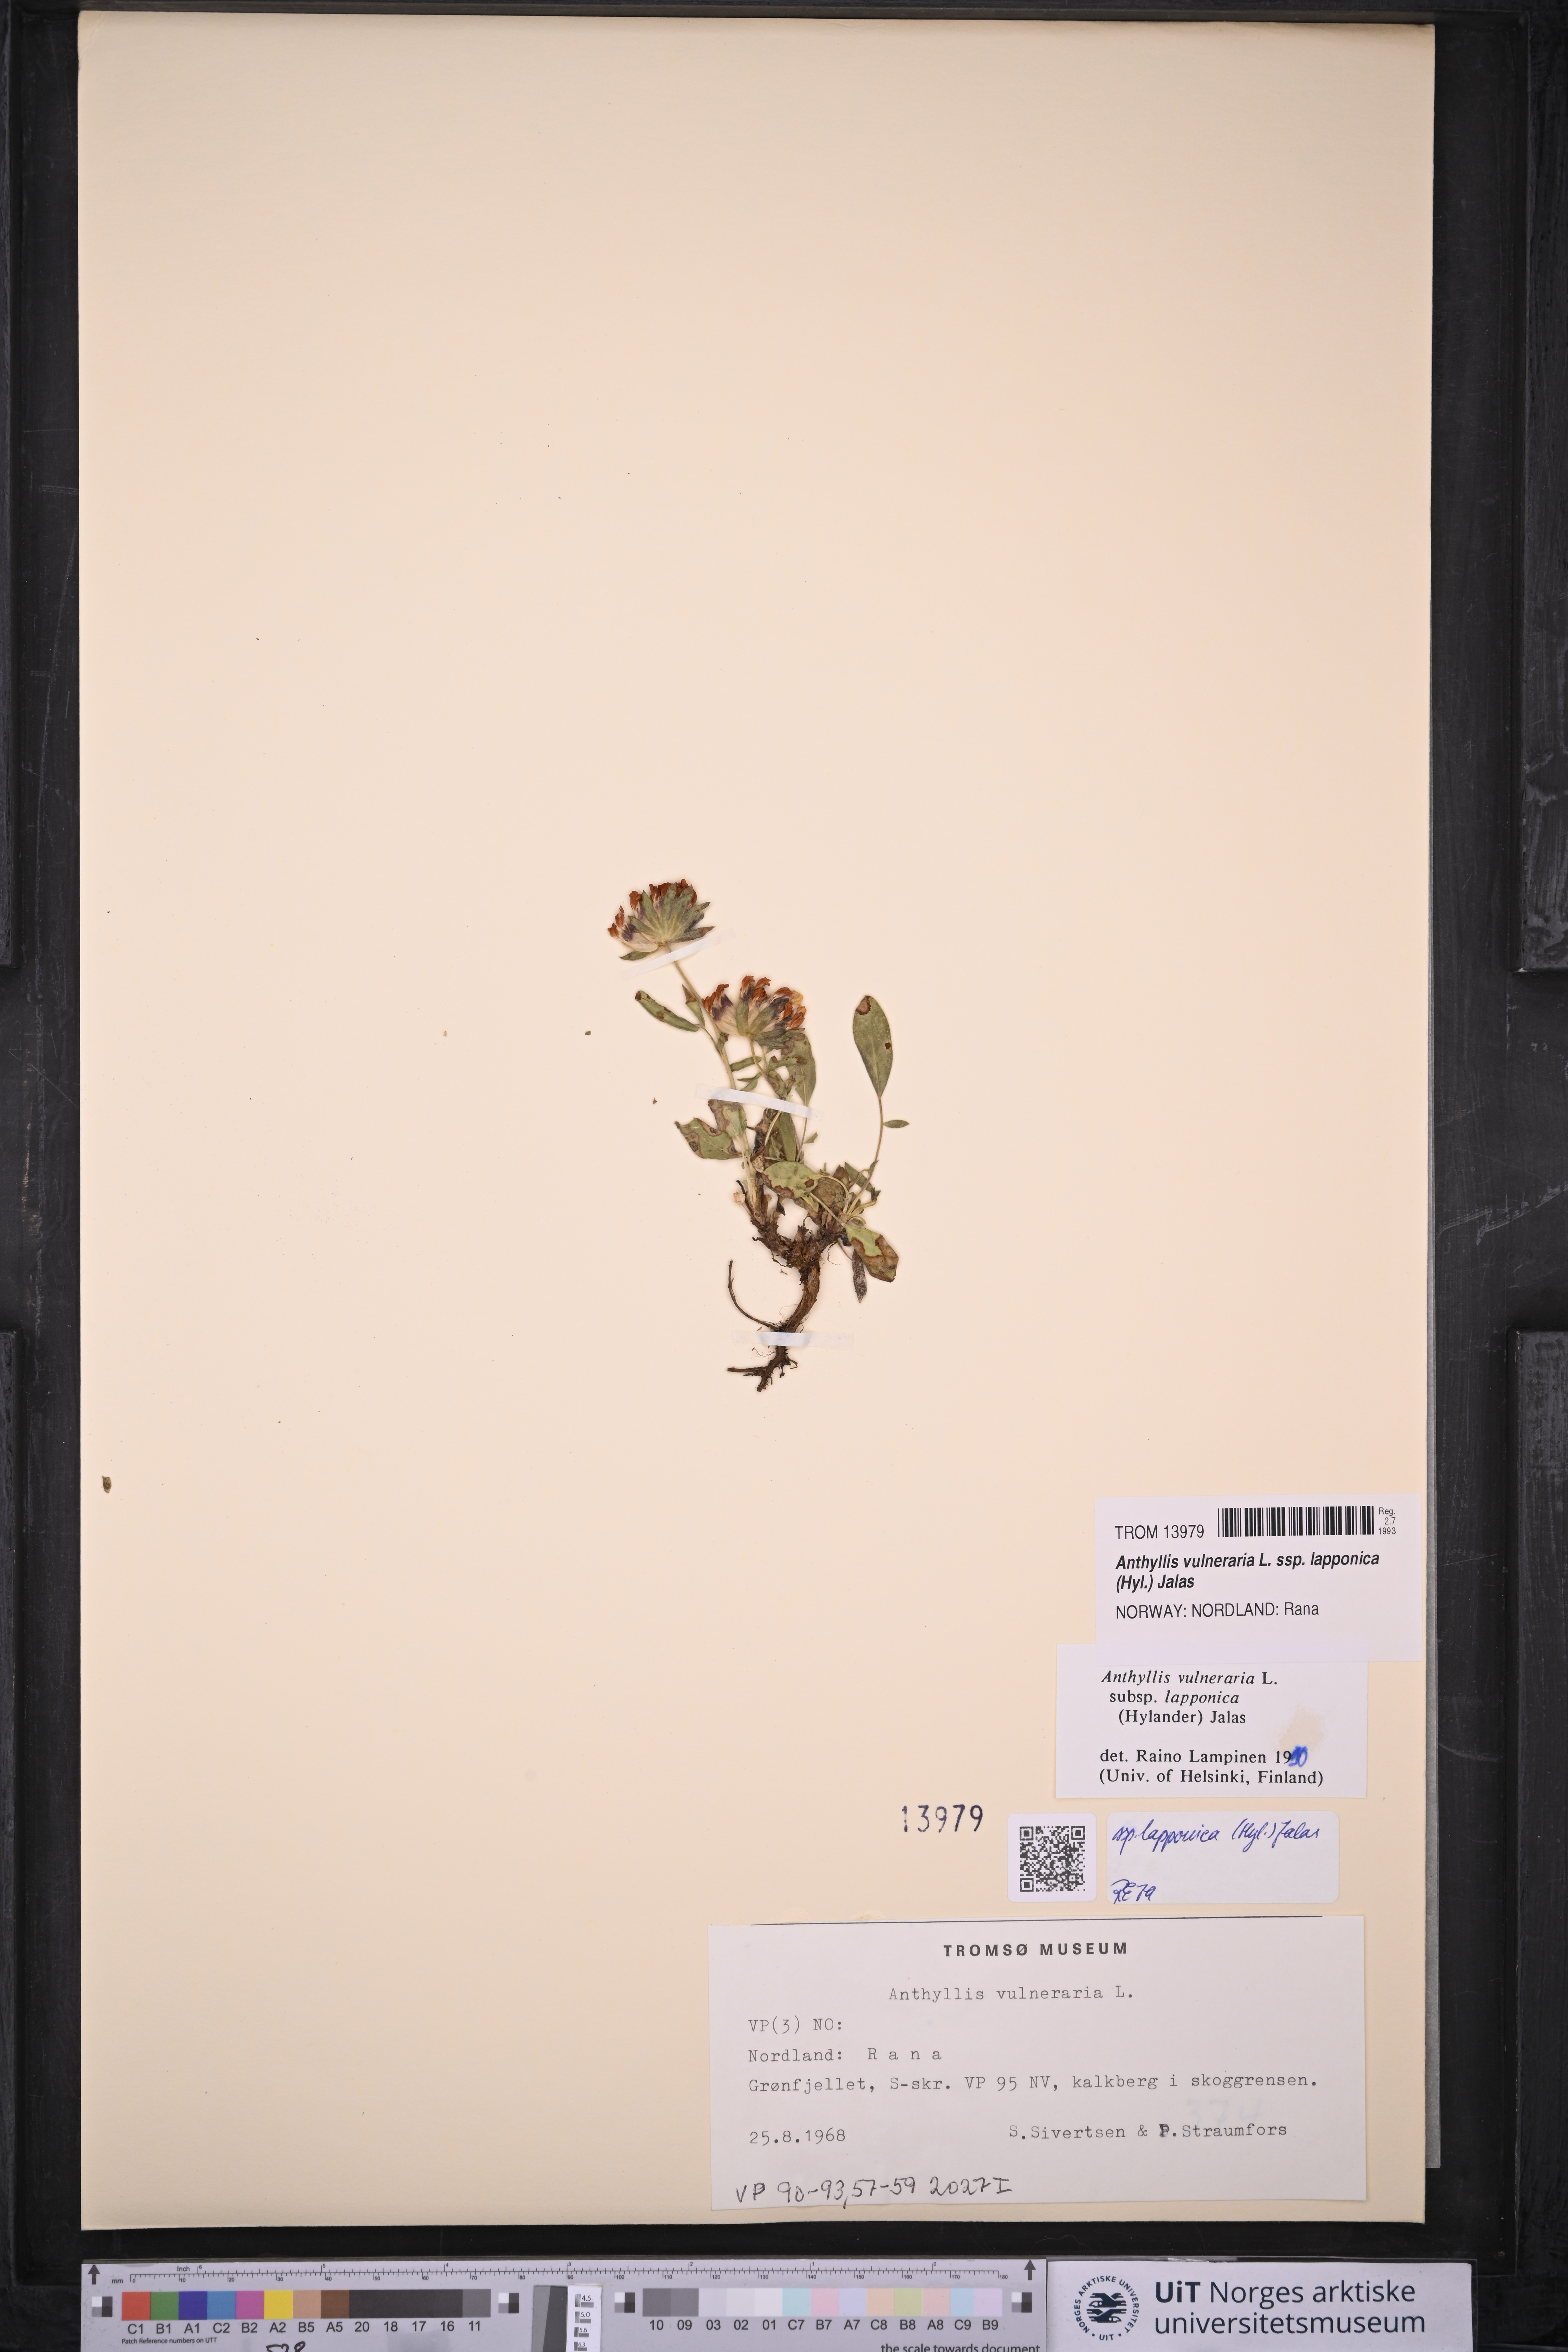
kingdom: Plantae
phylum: Tracheophyta
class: Magnoliopsida
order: Fabales
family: Fabaceae
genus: Anthyllis
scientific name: Anthyllis vulneraria
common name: Kidney vetch
